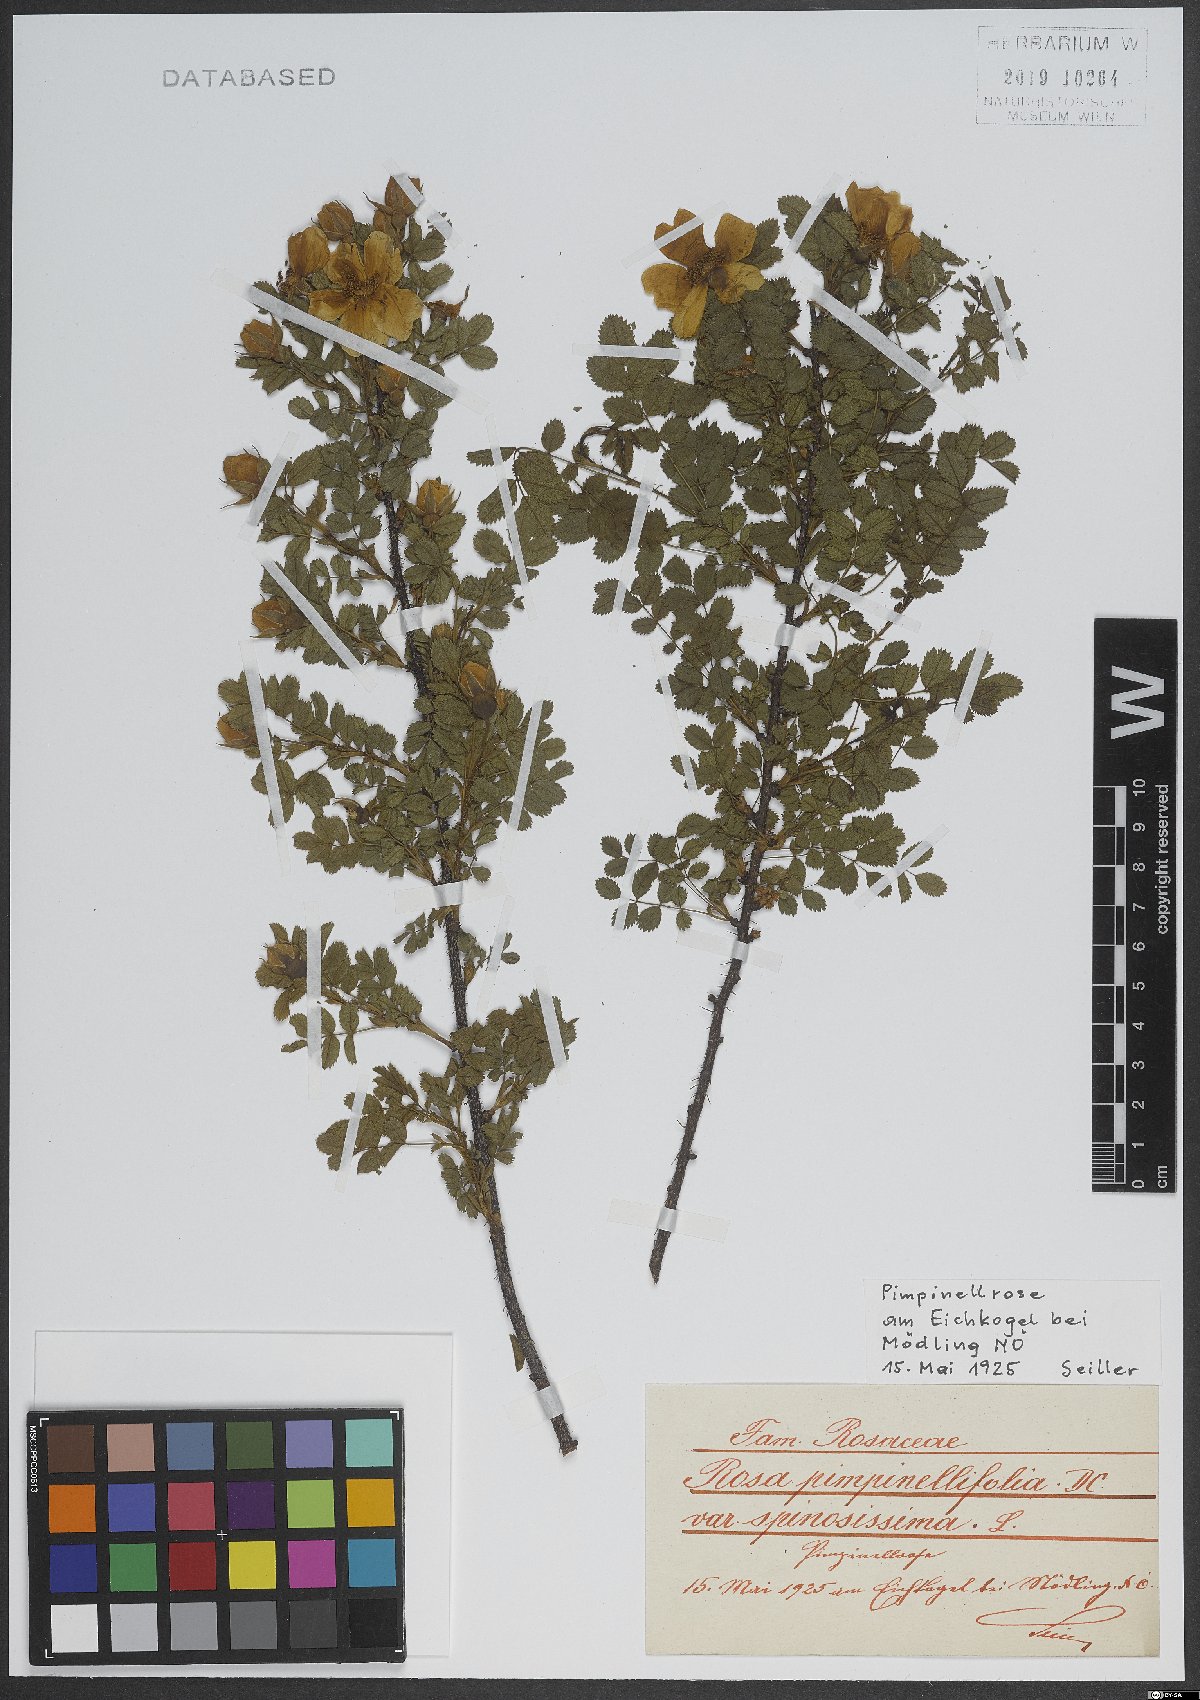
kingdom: Plantae
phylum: Tracheophyta
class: Magnoliopsida
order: Rosales
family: Rosaceae
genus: Rosa
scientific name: Rosa spinosissima
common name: Burnet rose
